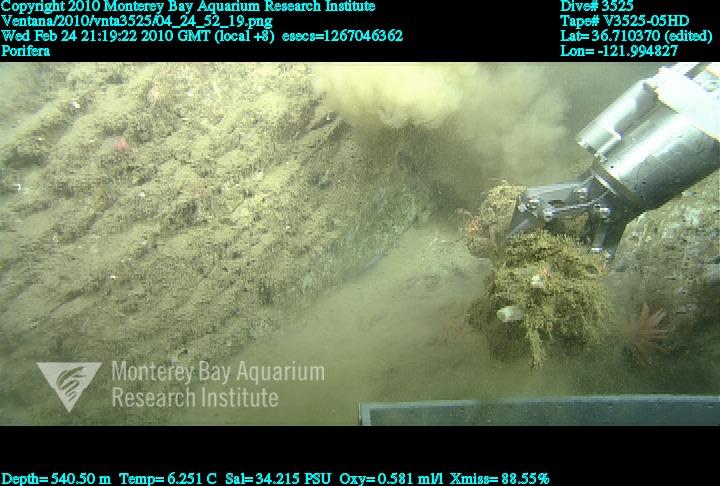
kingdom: Animalia
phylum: Porifera
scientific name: Porifera
